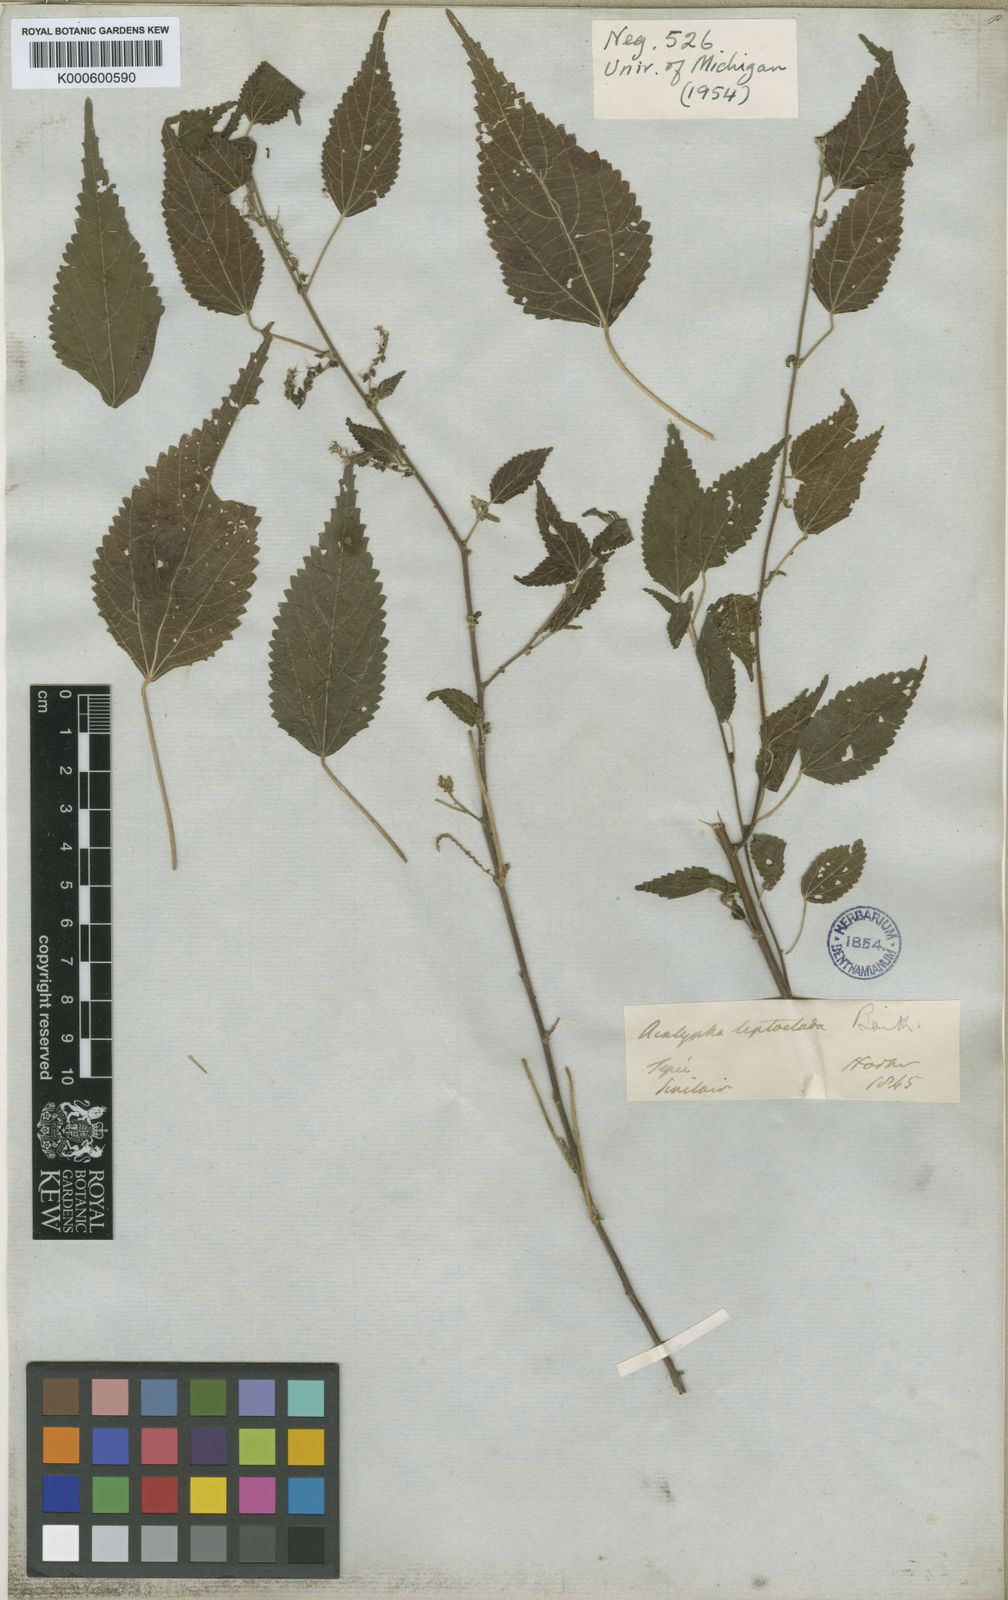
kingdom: Plantae
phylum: Tracheophyta
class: Magnoliopsida
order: Malpighiales
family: Euphorbiaceae
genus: Acalypha
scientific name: Acalypha leptoclada
